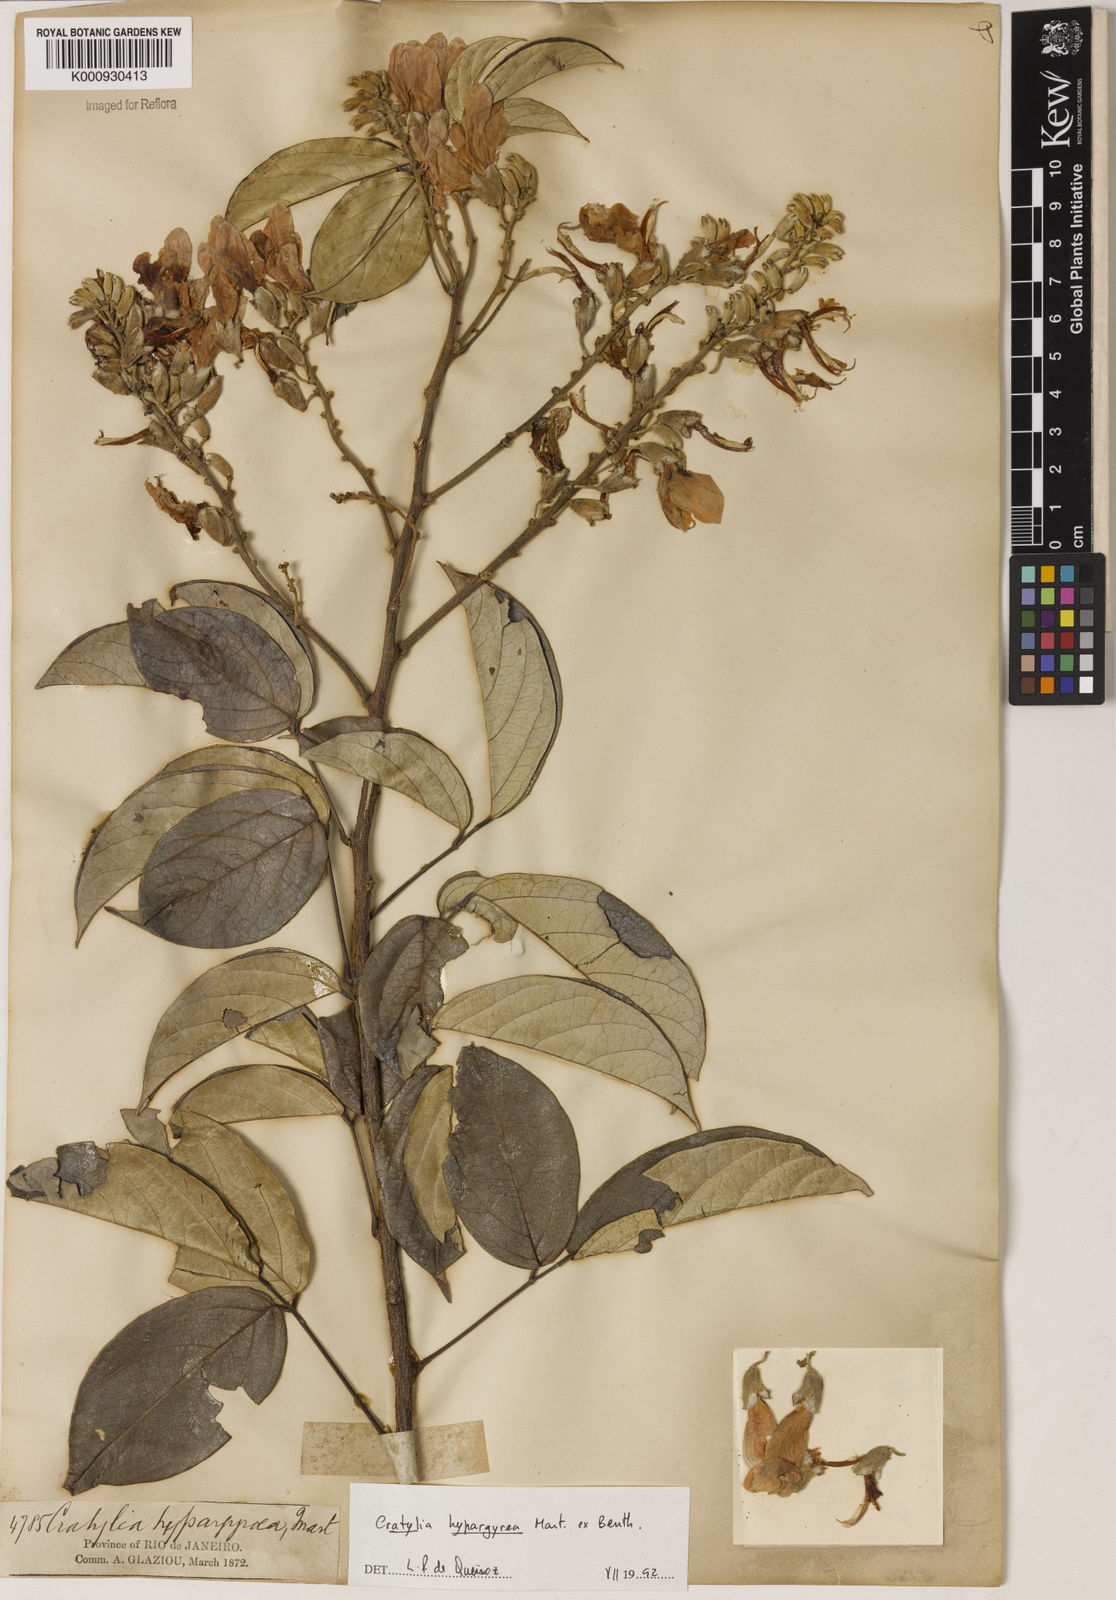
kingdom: Plantae
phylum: Tracheophyta
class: Magnoliopsida
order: Fabales
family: Fabaceae
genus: Cratylia
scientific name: Cratylia
